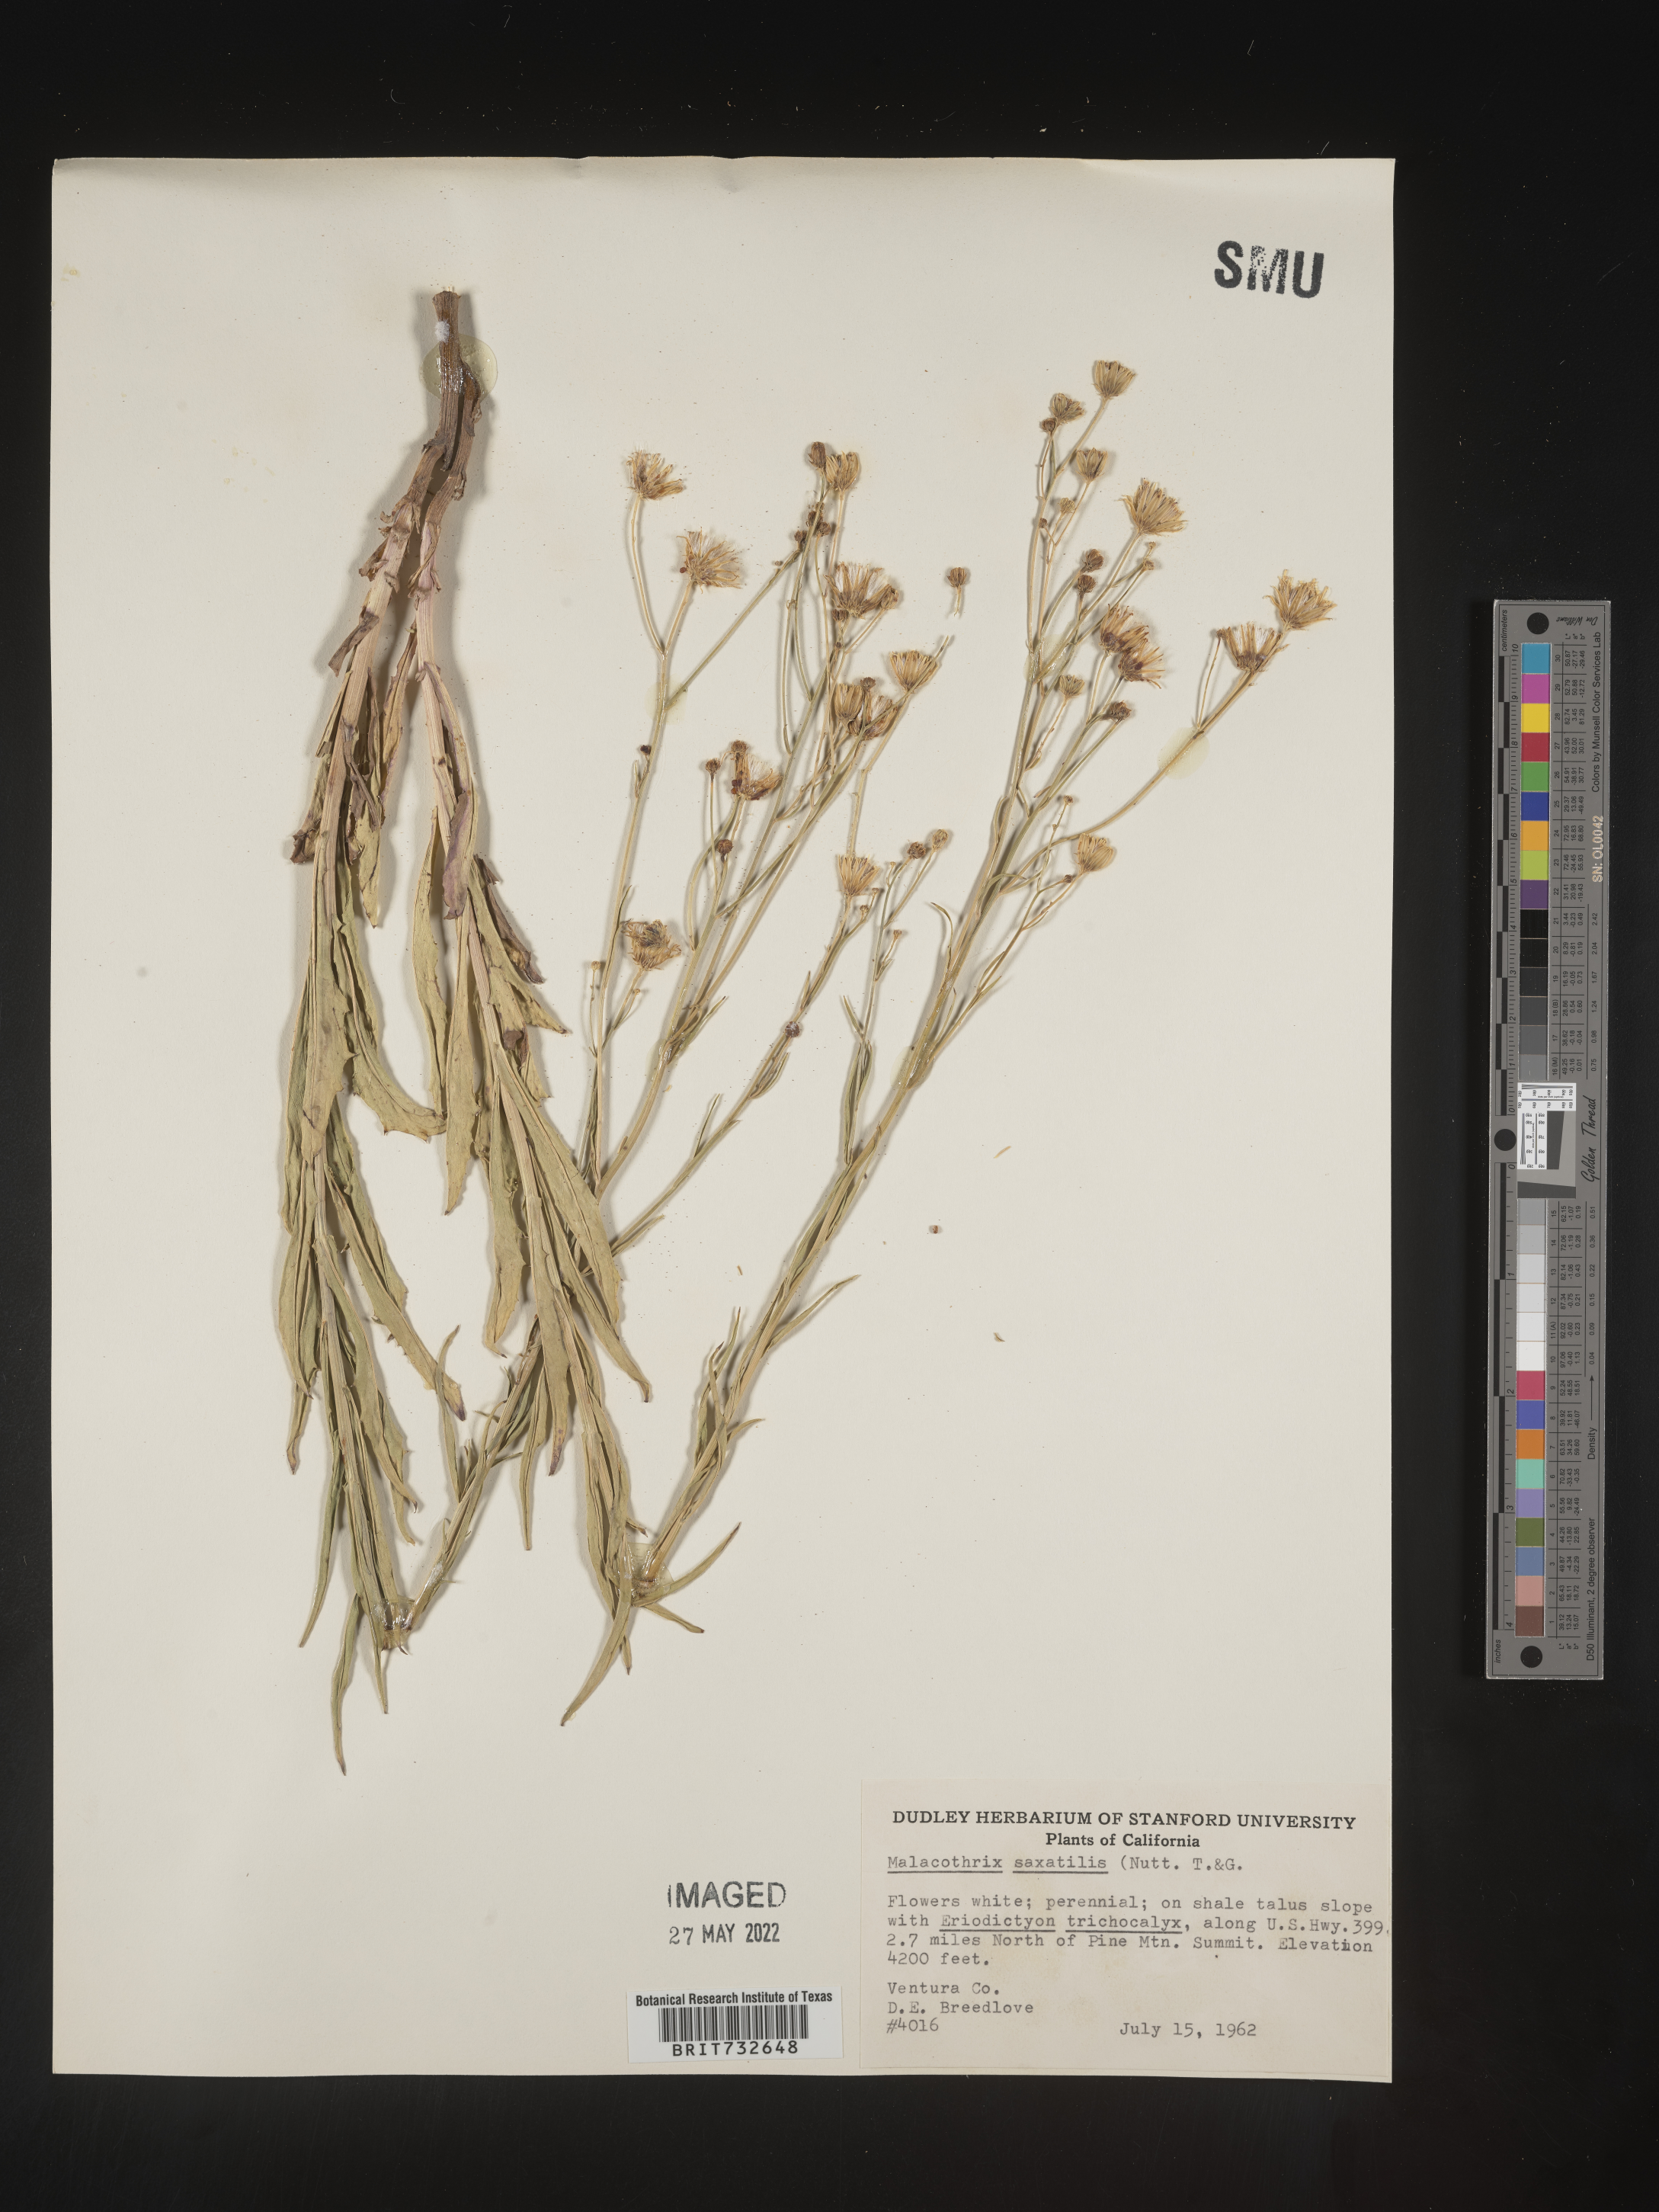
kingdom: Plantae
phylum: Tracheophyta
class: Magnoliopsida
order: Asterales
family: Asteraceae
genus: Malacothrix
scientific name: Malacothrix saxatilis
